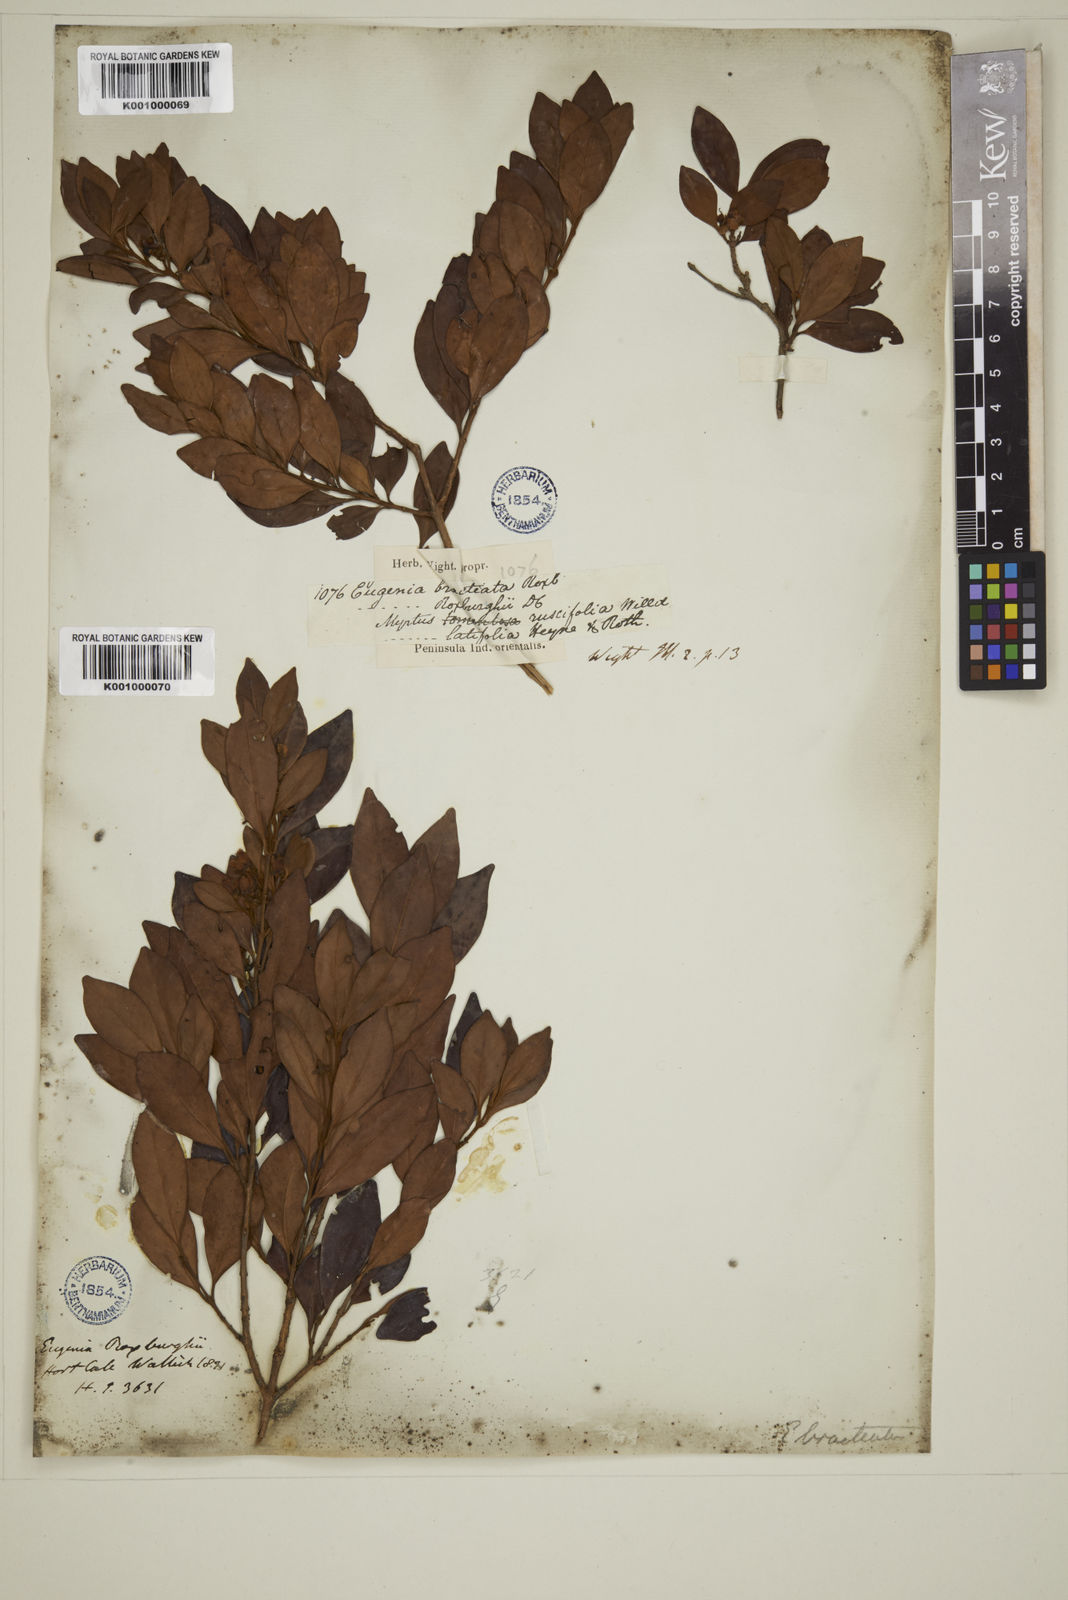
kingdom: Plantae
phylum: Tracheophyta
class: Magnoliopsida
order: Myrtales
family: Myrtaceae
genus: Myrcia
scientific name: Myrcia bracteata
